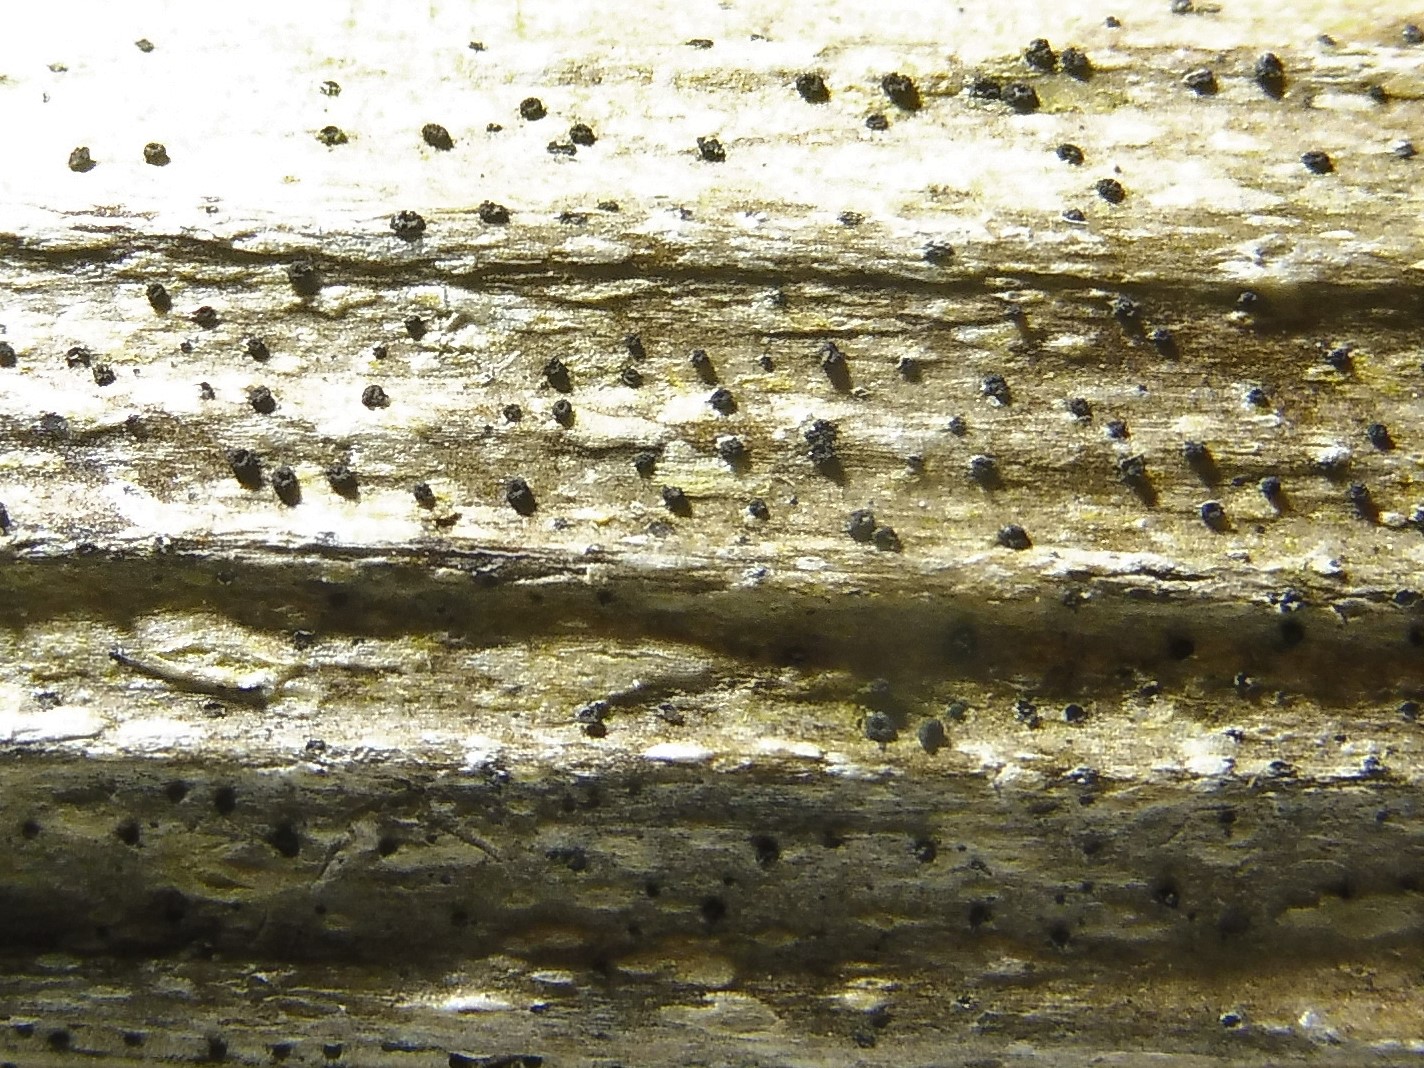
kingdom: Fungi
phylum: Ascomycota
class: Leotiomycetes
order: Helotiales
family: Heterosphaeriaceae
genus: Heterosphaeria
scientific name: Heterosphaeria
